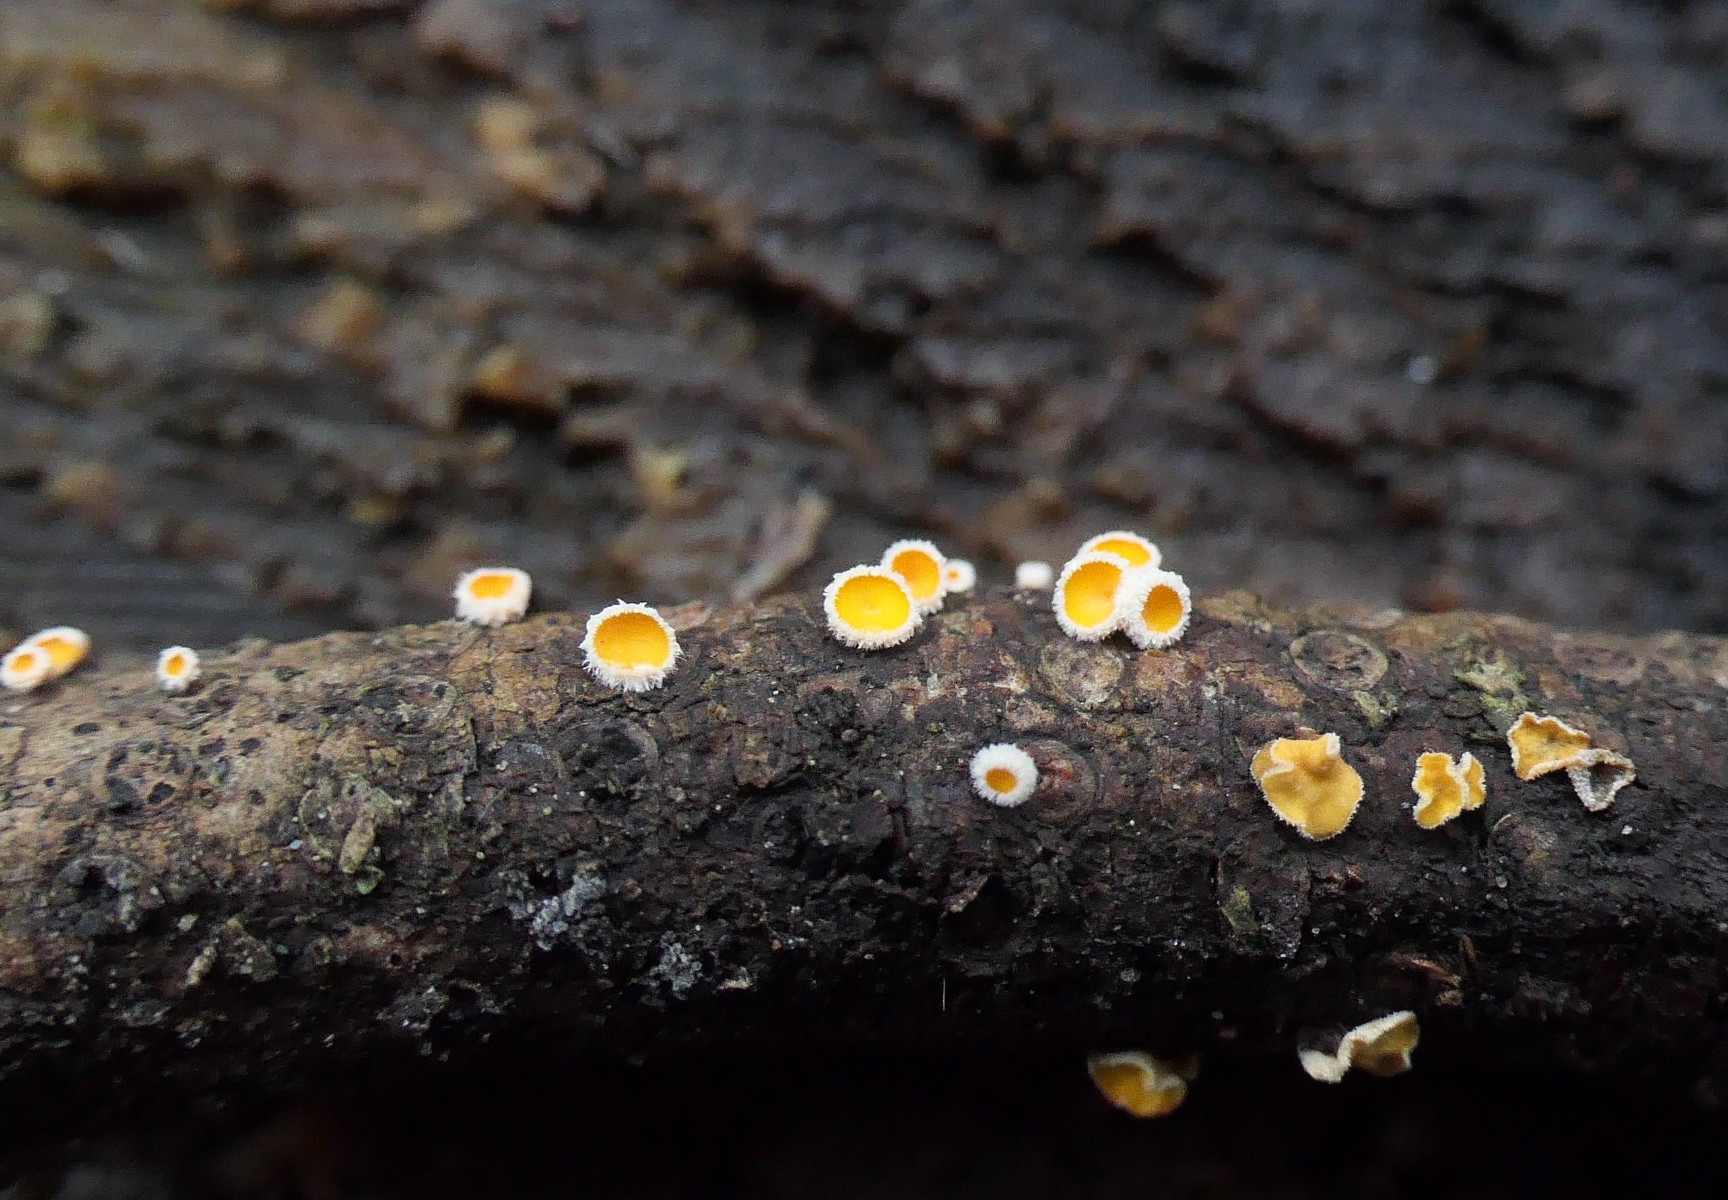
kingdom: Fungi
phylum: Ascomycota
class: Leotiomycetes
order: Helotiales
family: Lachnaceae
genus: Perrotia
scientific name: Perrotia gallica
